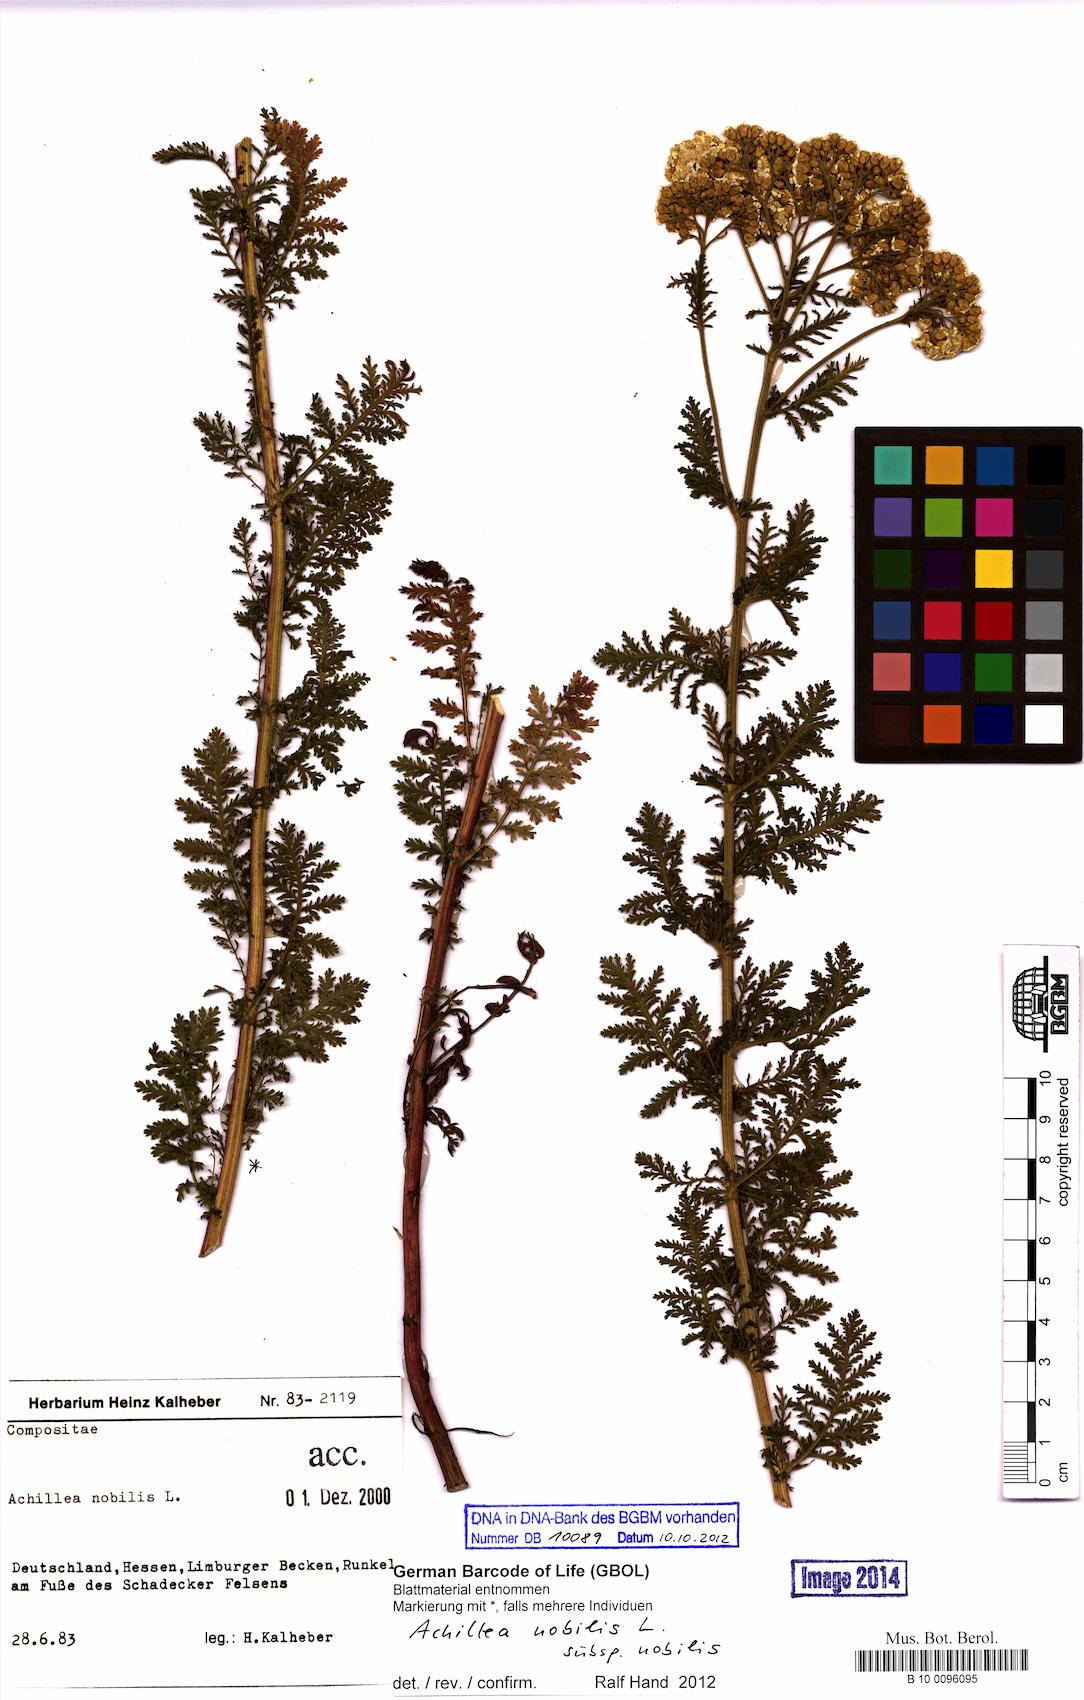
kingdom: Plantae
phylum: Tracheophyta
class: Magnoliopsida
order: Asterales
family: Asteraceae
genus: Achillea
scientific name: Achillea nobilis
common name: Noble yarrow
